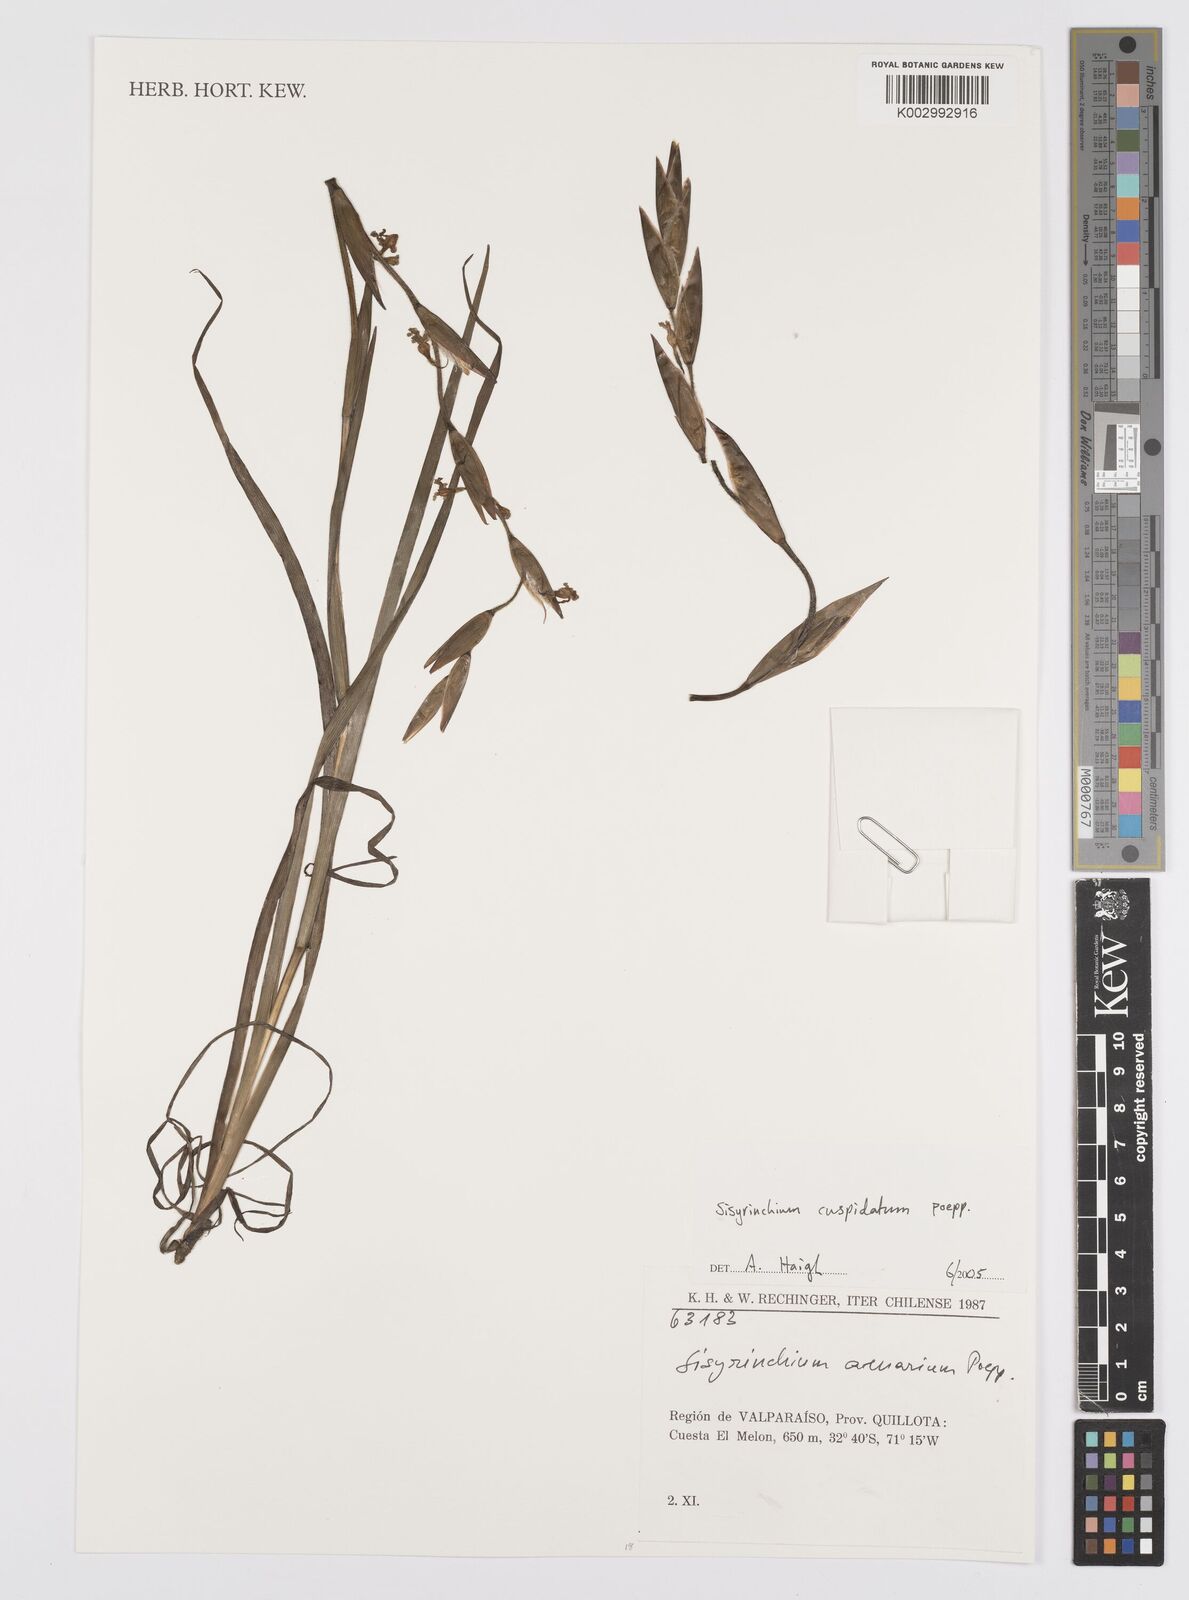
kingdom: Plantae
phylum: Tracheophyta
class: Liliopsida
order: Asparagales
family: Iridaceae
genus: Sisyrinchium
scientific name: Sisyrinchium cuspidatum
